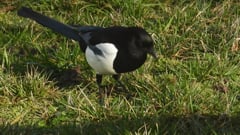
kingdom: Animalia
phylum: Chordata
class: Aves
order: Passeriformes
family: Corvidae
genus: Pica
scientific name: Pica pica
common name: Eurasian magpie
